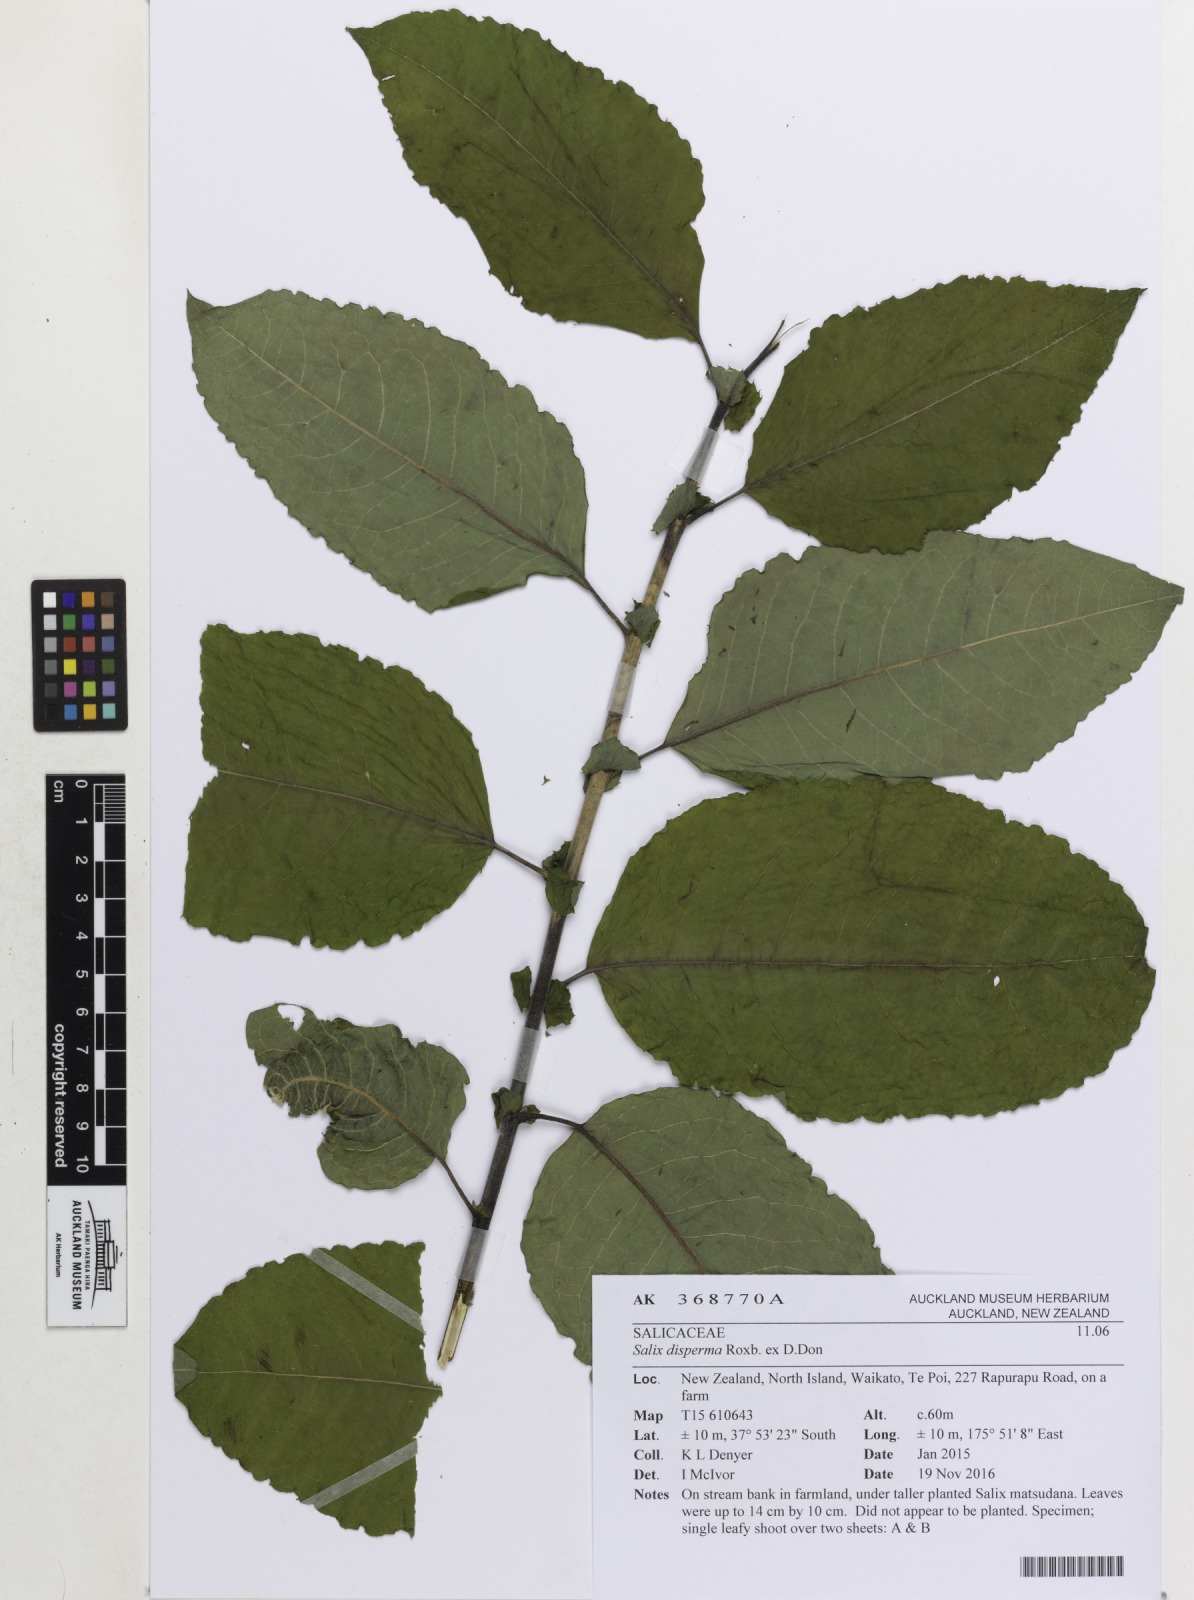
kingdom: Plantae
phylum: Tracheophyta
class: Magnoliopsida
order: Malpighiales
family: Salicaceae
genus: Salix
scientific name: Salix disperma
